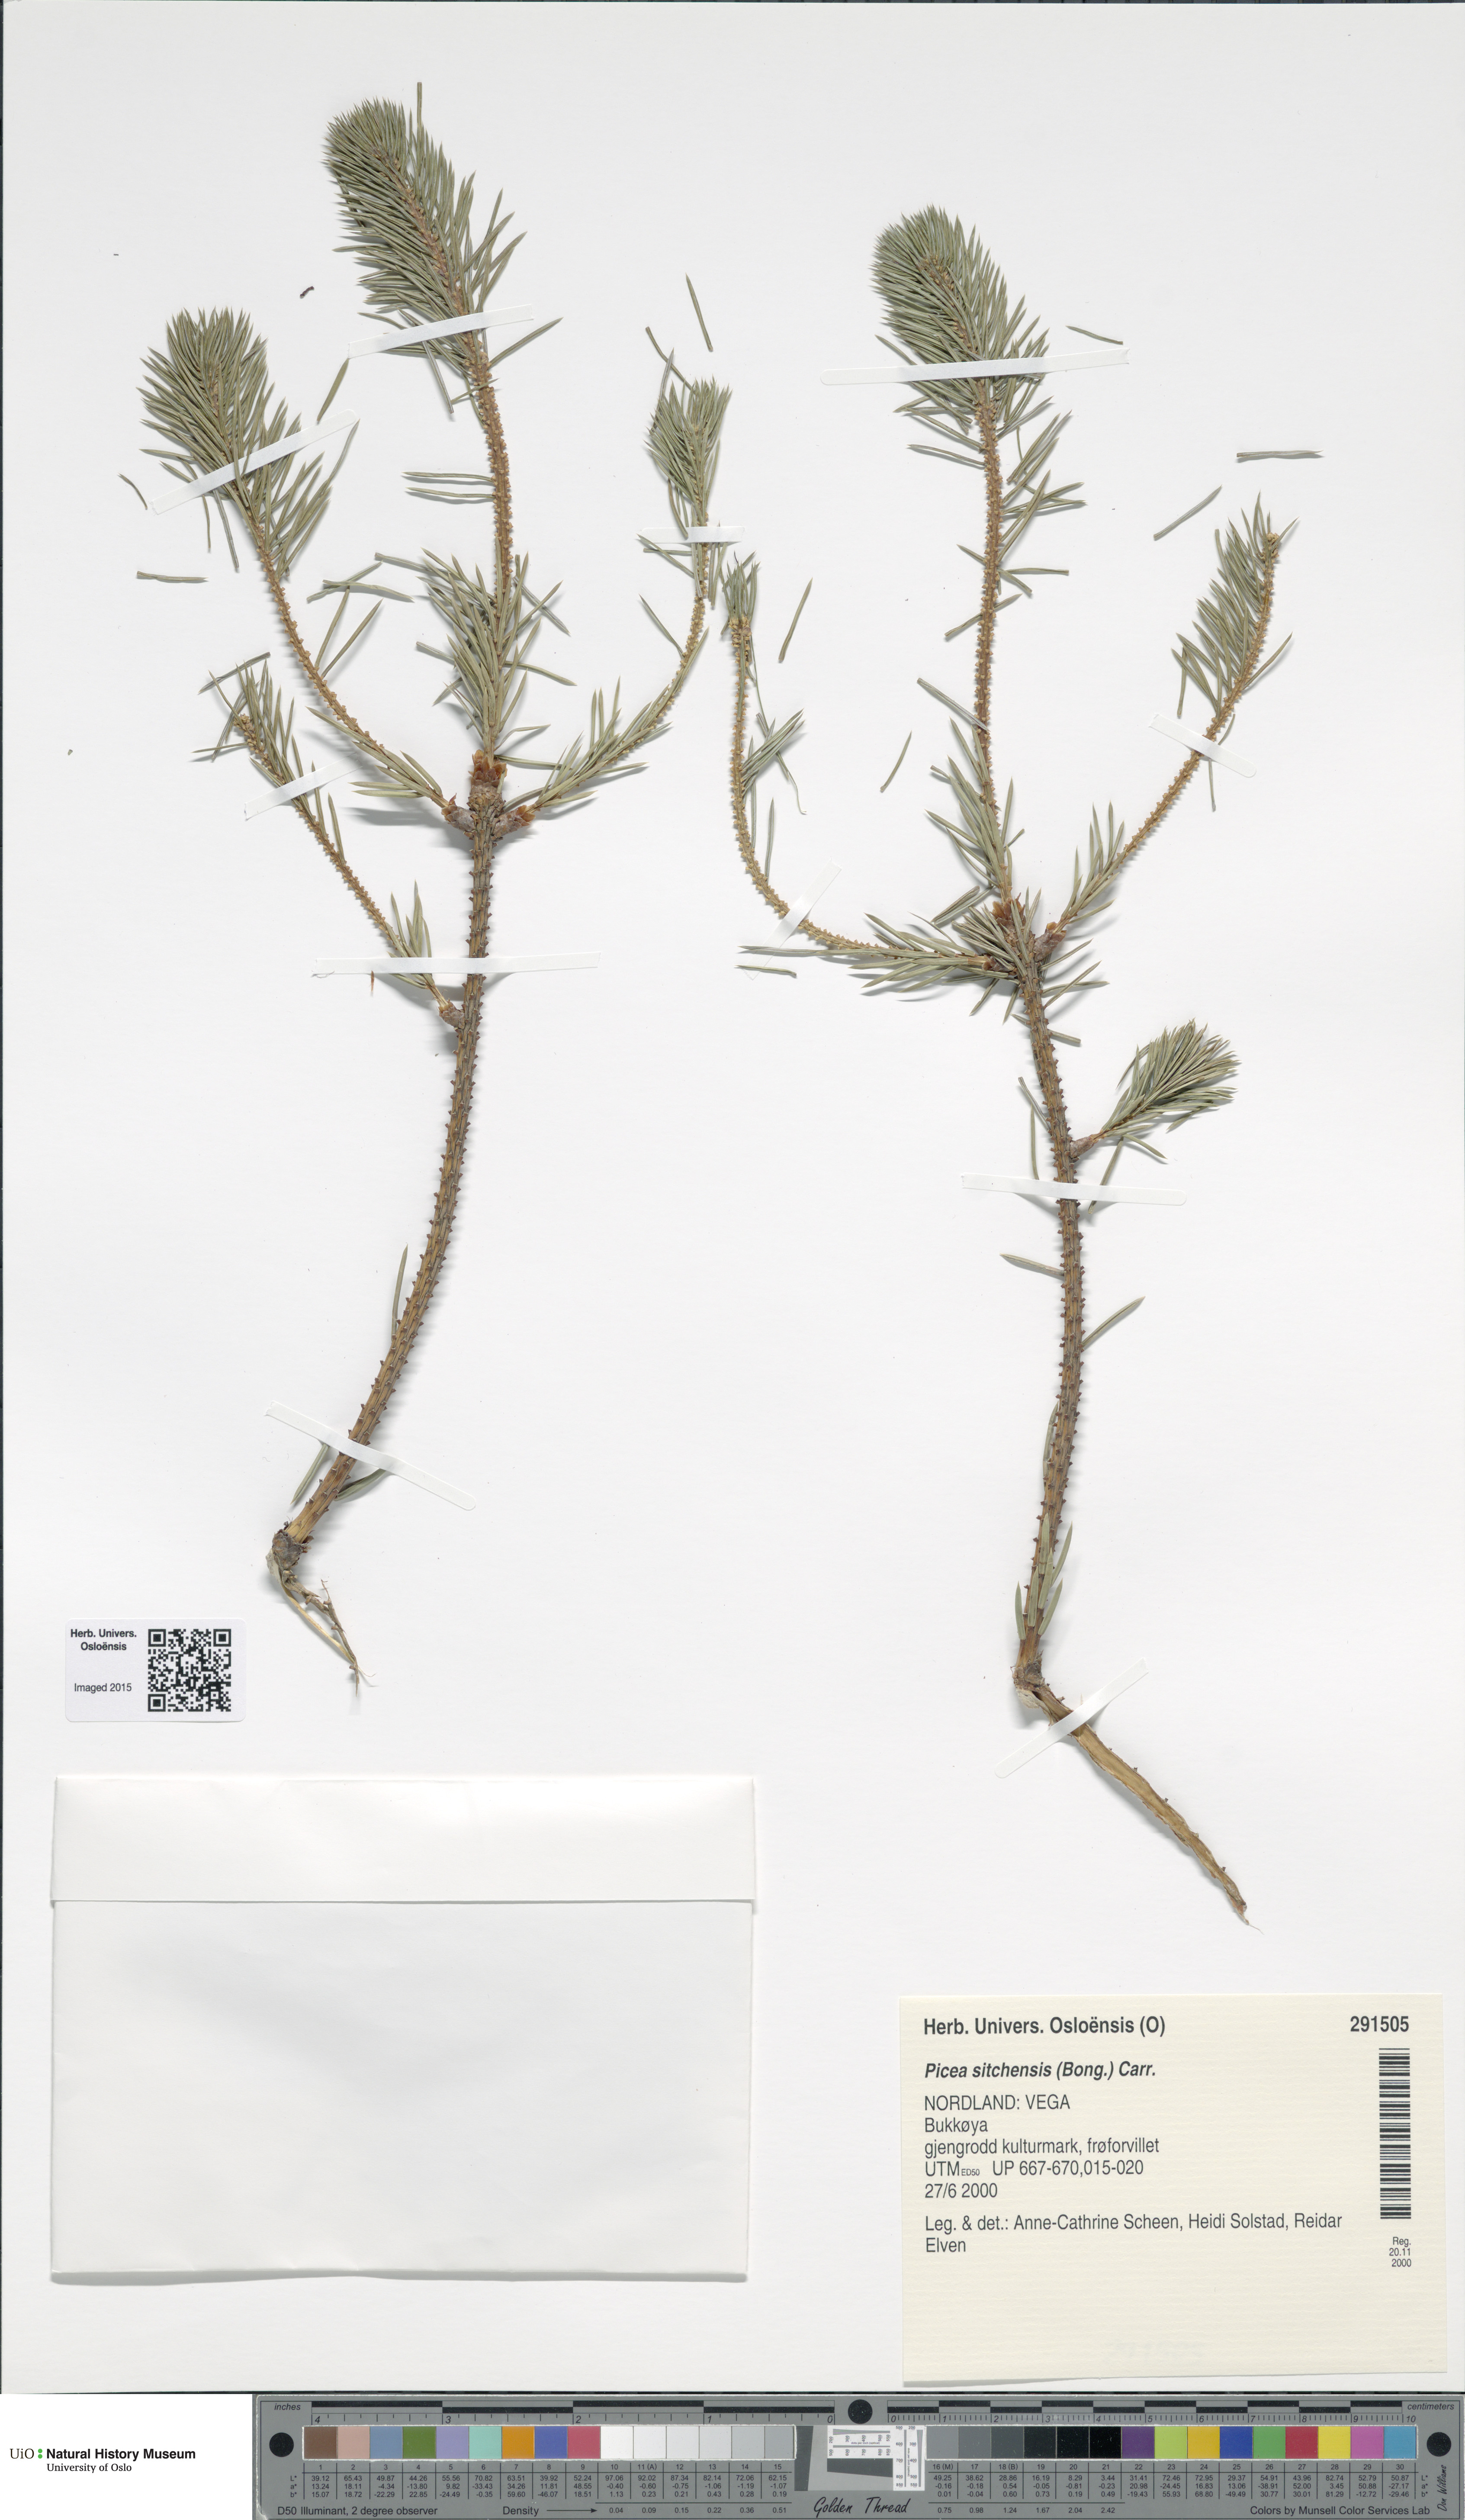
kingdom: Plantae
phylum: Tracheophyta
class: Pinopsida
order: Pinales
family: Pinaceae
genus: Picea
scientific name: Picea sitchensis
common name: Sitka spruce
